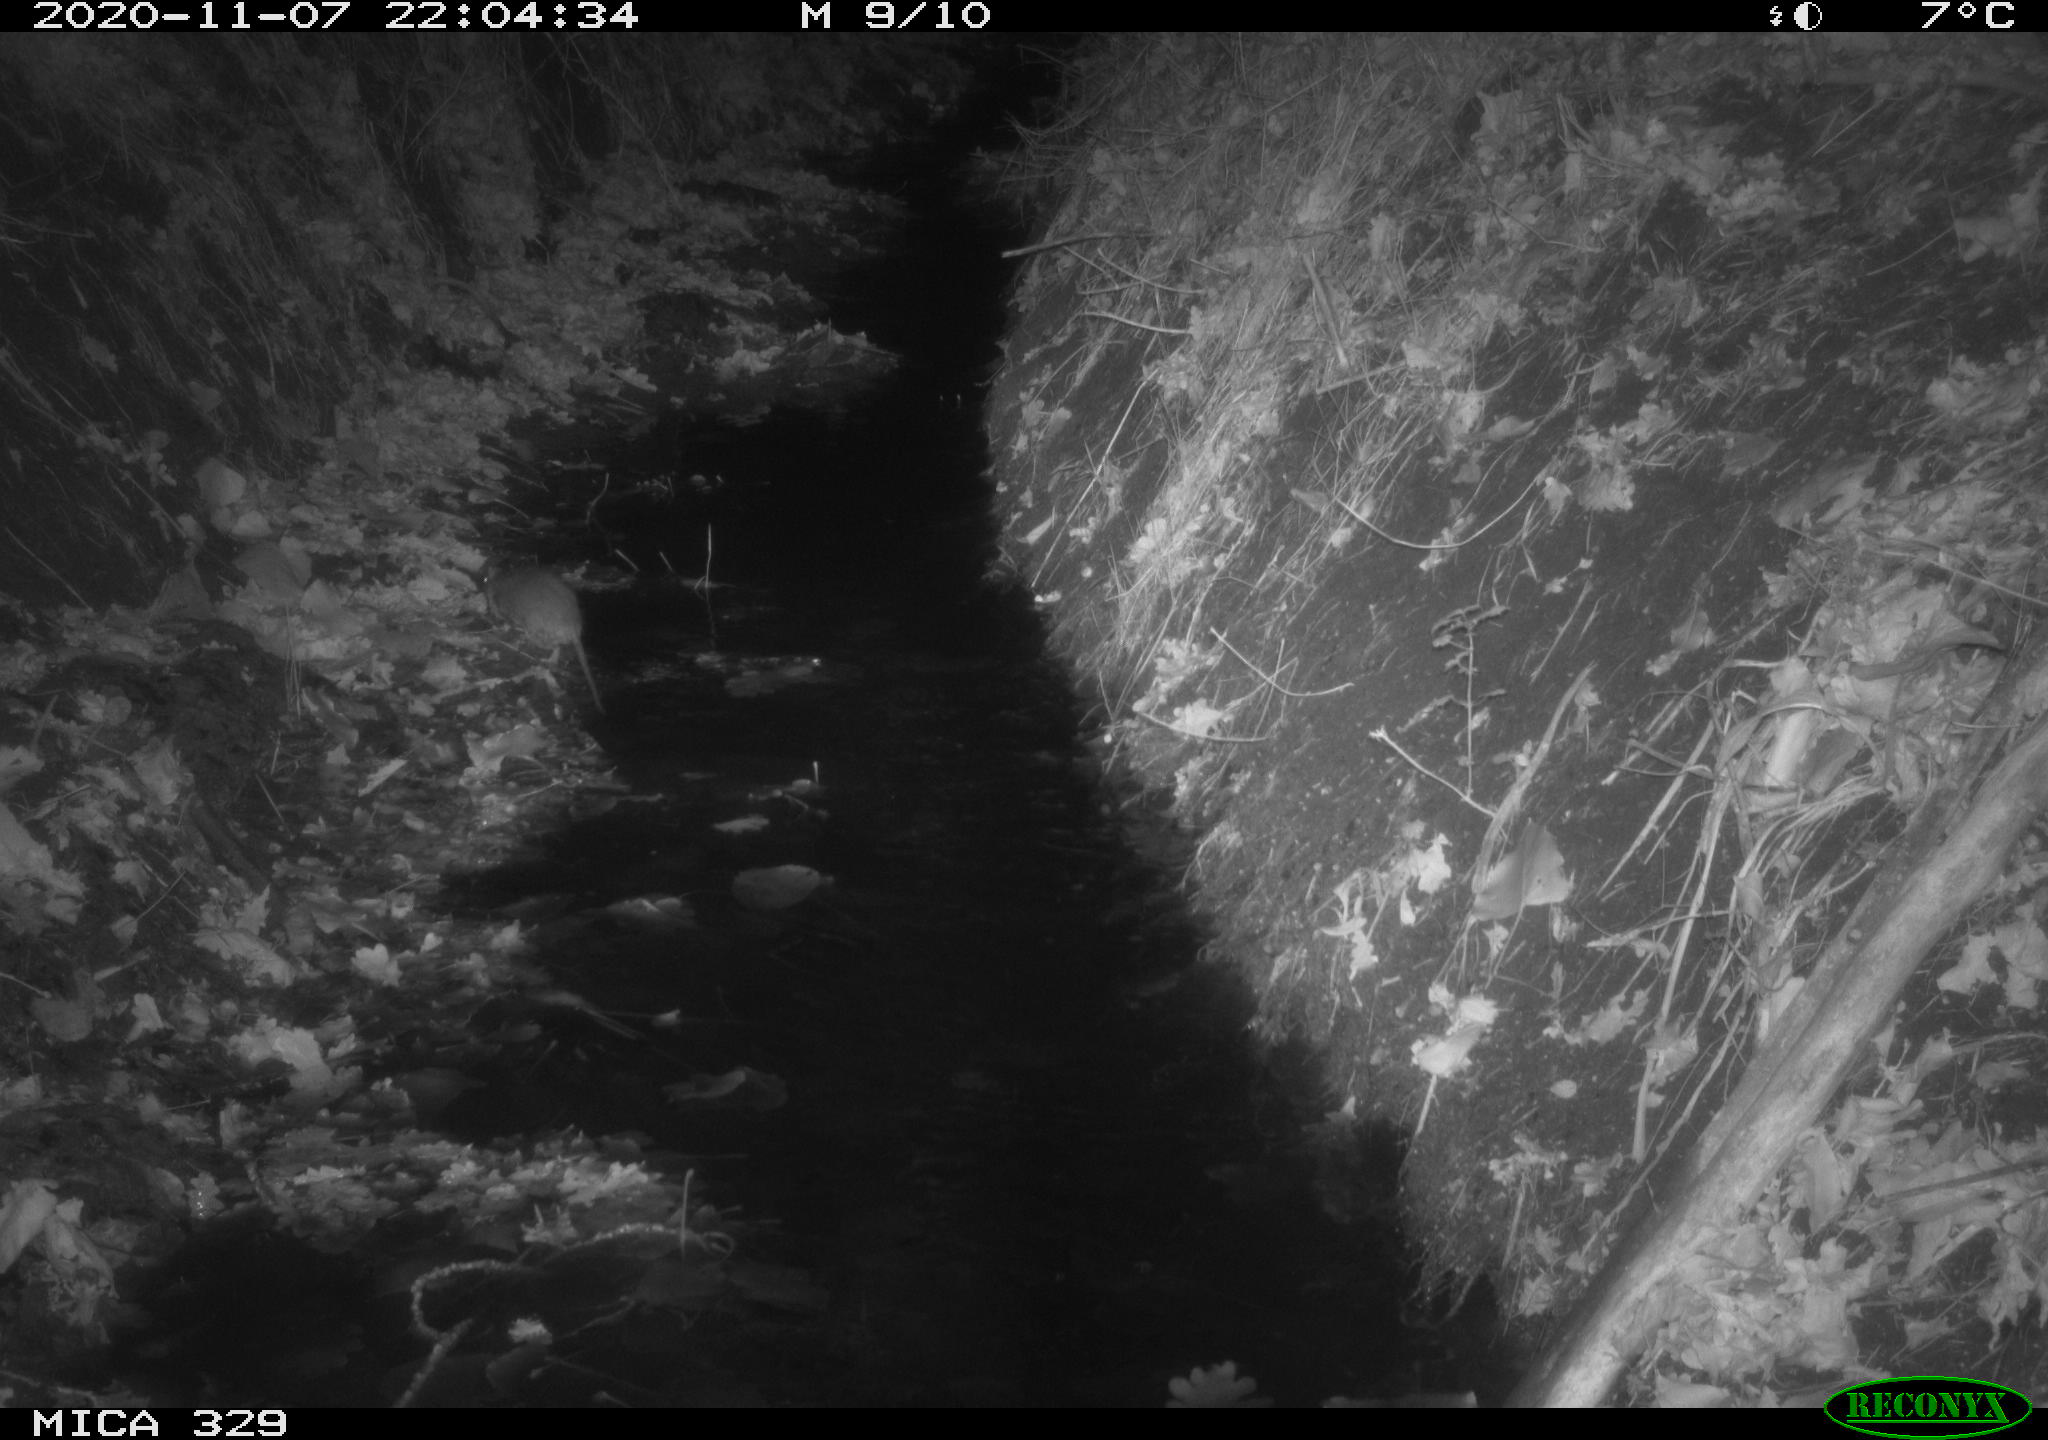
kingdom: Animalia
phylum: Chordata
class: Mammalia
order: Rodentia
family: Muridae
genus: Rattus
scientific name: Rattus norvegicus
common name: Brown rat
